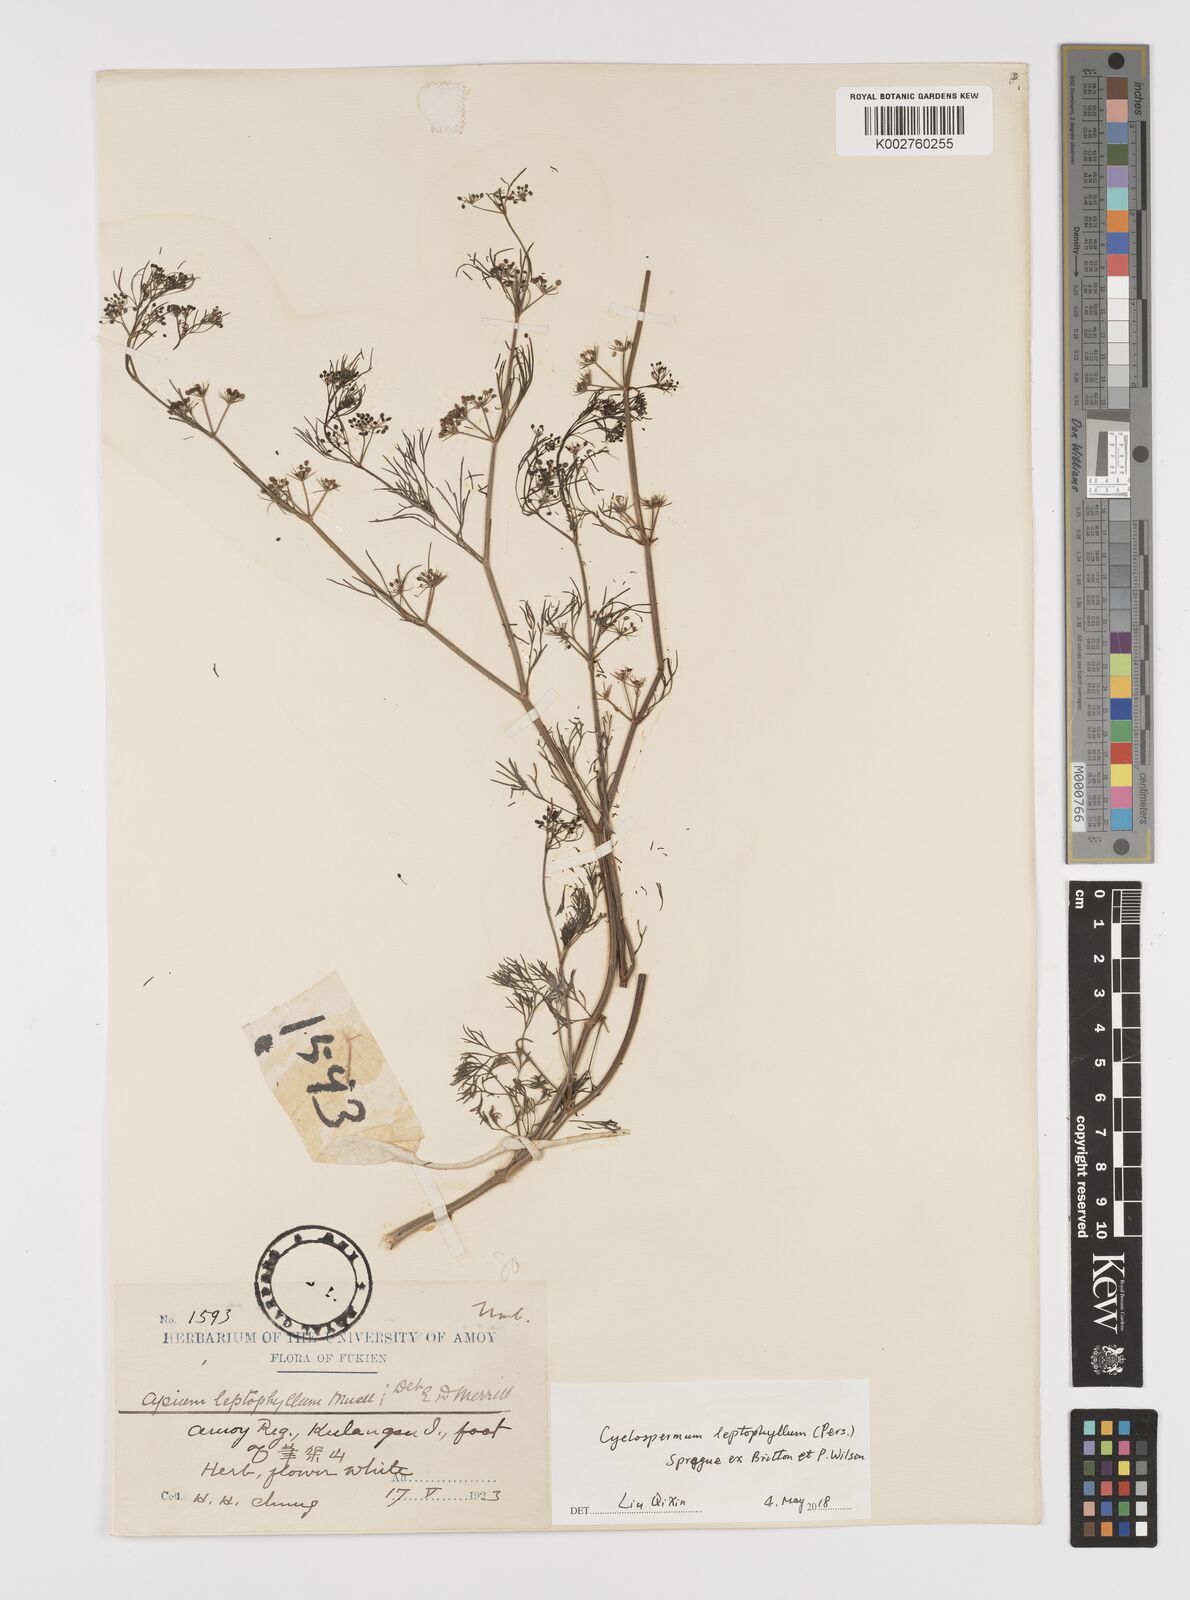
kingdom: Plantae
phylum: Tracheophyta
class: Magnoliopsida
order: Apiales
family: Apiaceae
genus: Cyclospermum
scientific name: Cyclospermum leptophyllum
